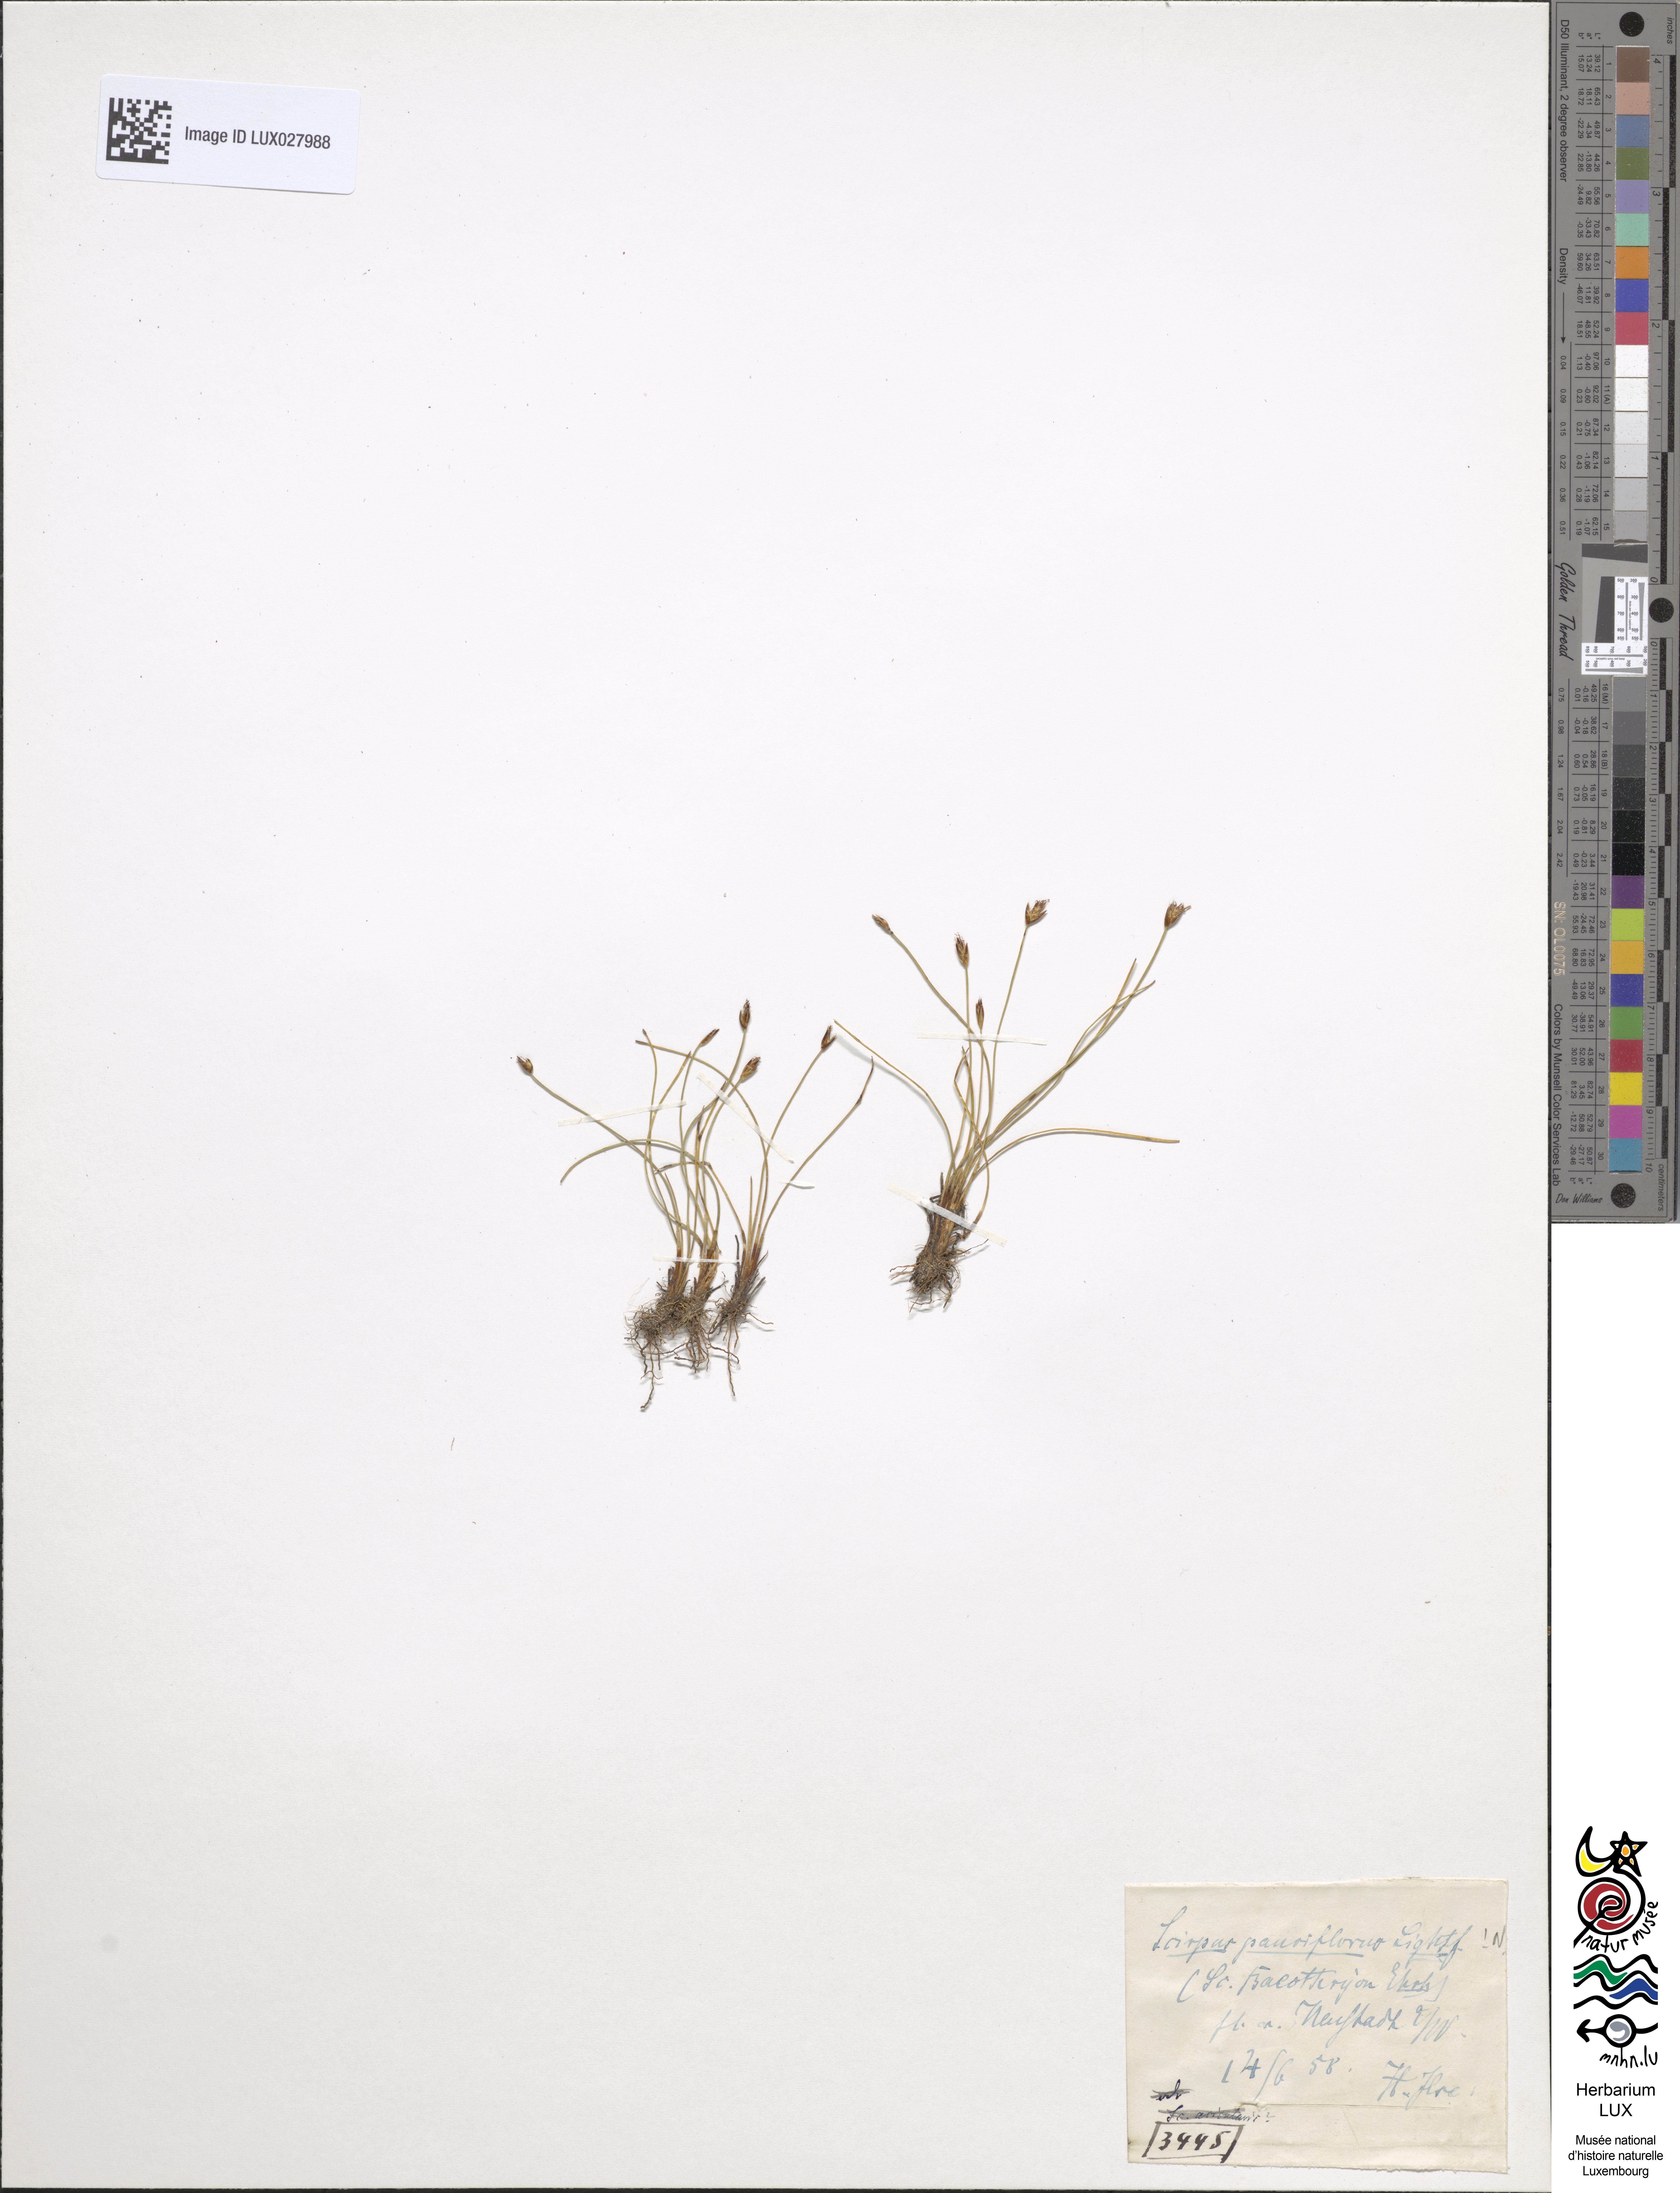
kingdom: Plantae
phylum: Tracheophyta
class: Liliopsida
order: Poales
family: Cyperaceae
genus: Eleocharis
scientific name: Eleocharis quinqueflora
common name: Few-flowered spike-rush
